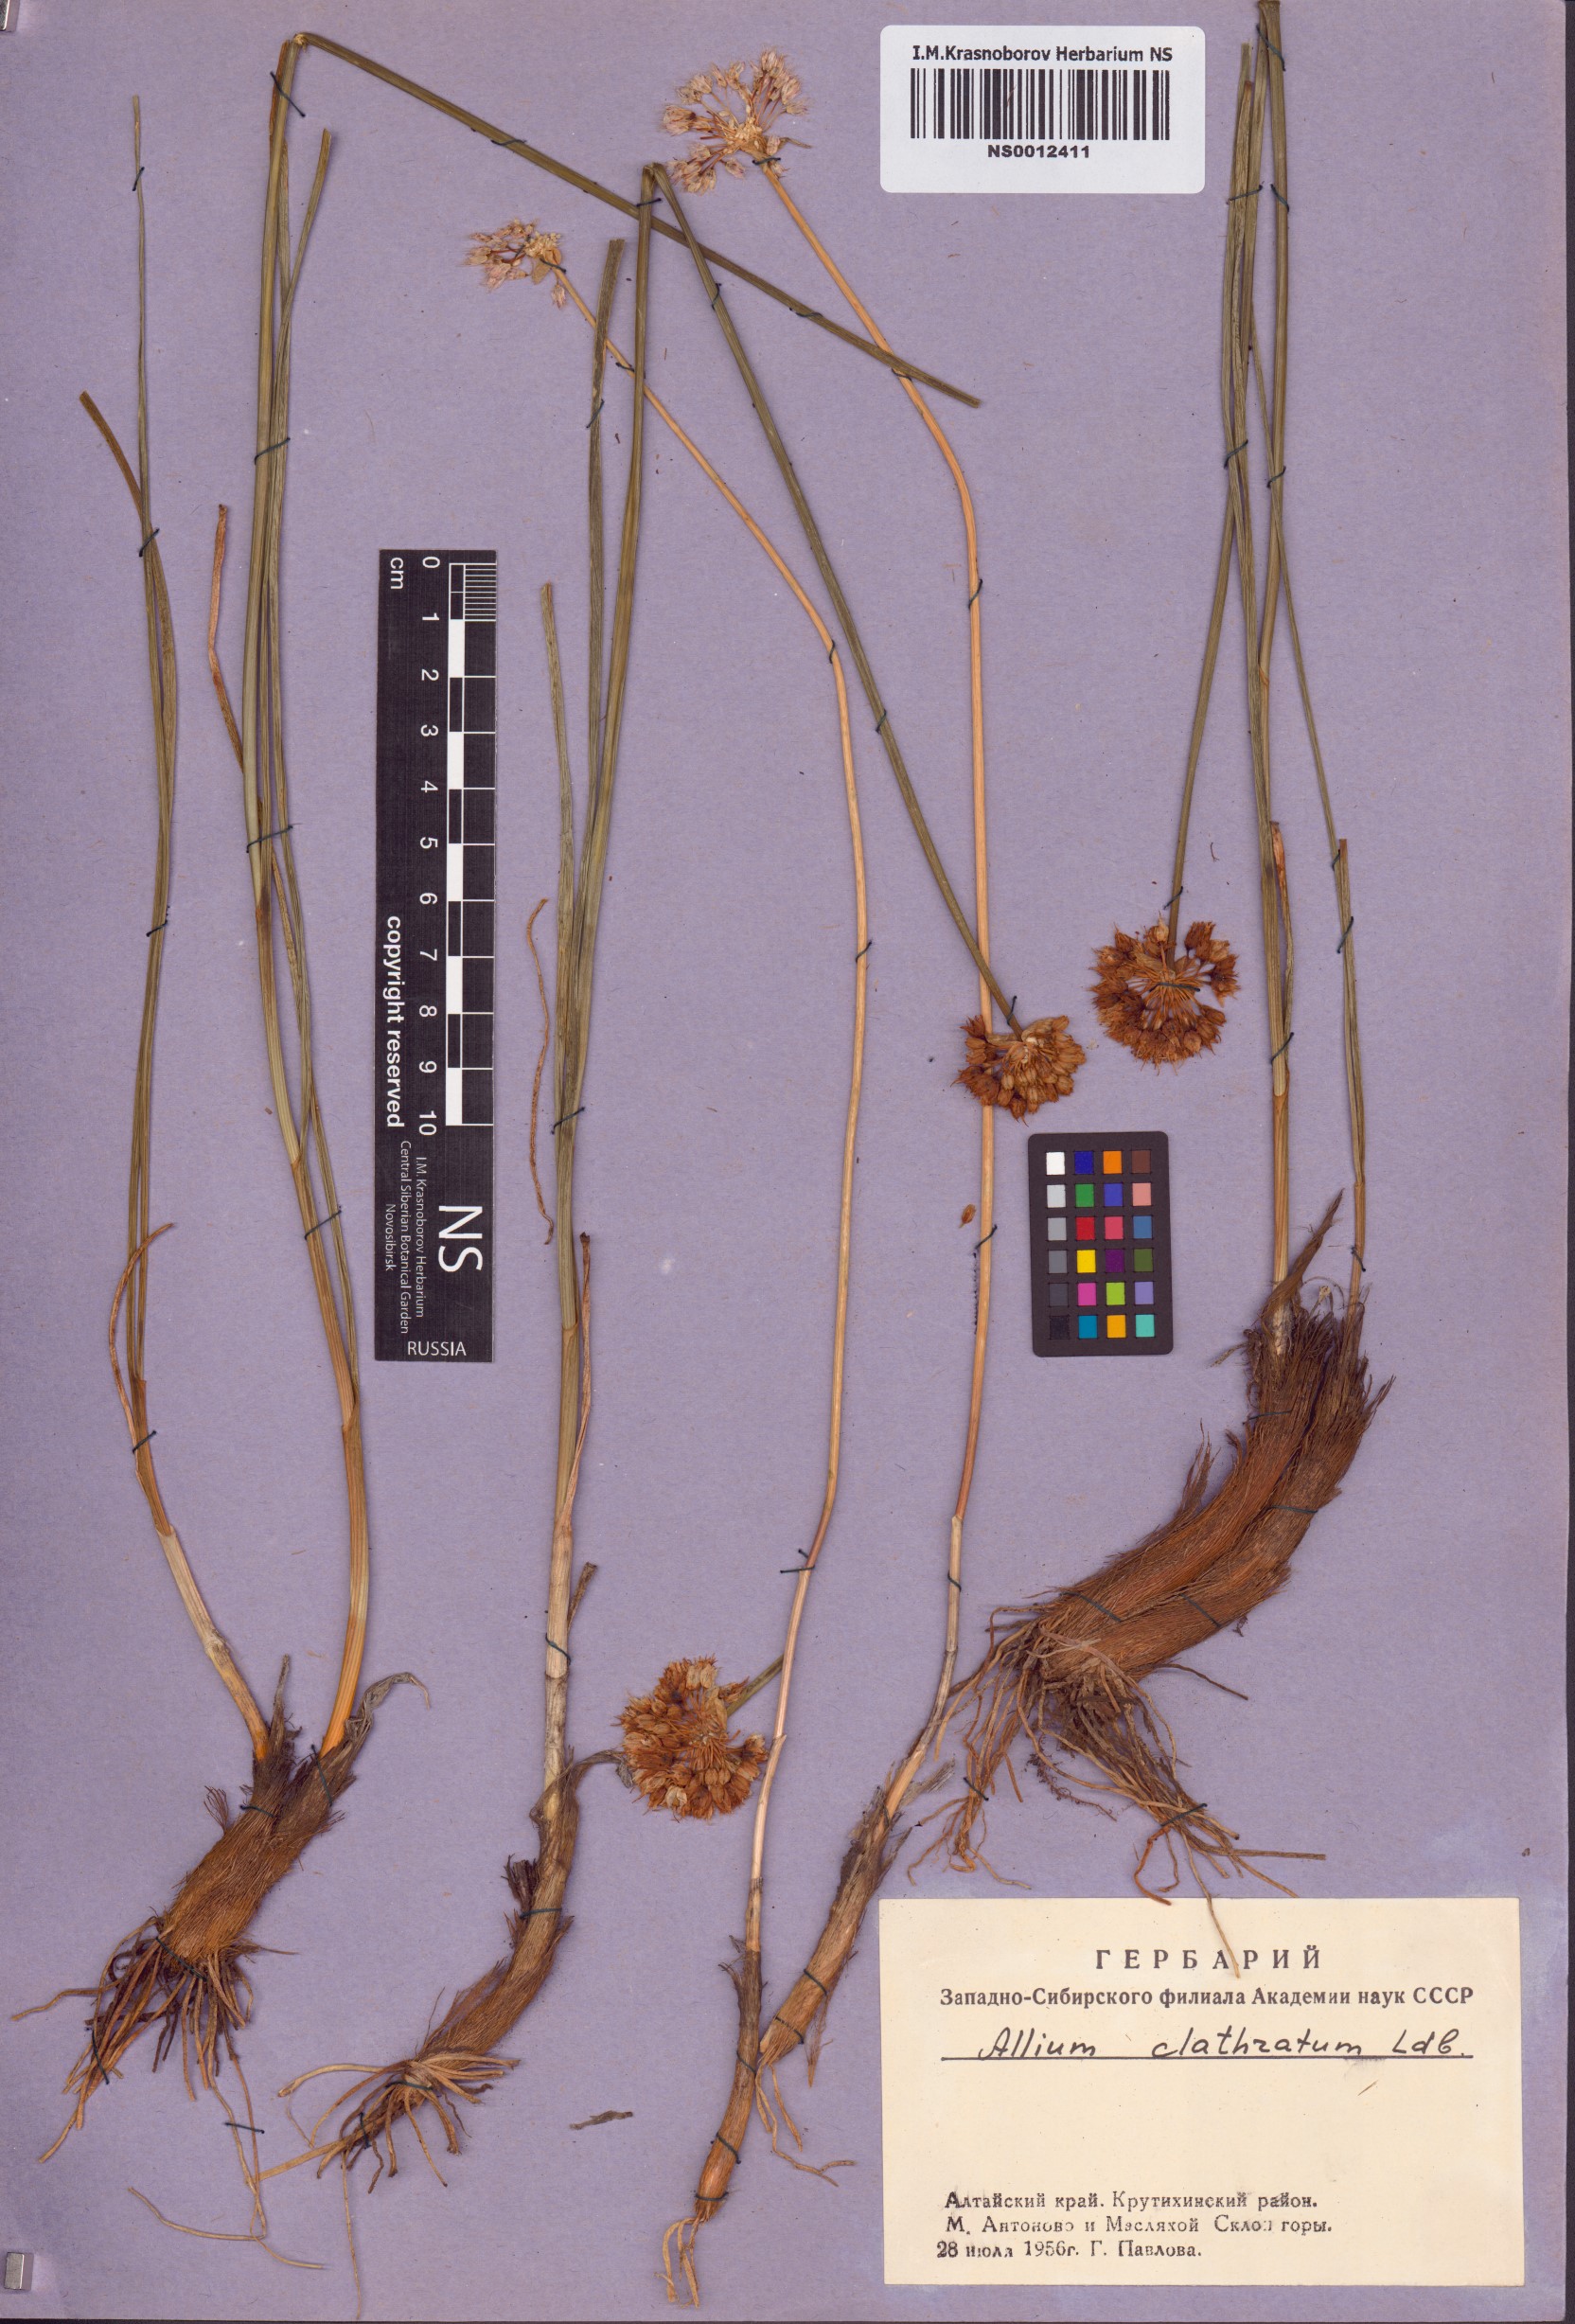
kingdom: Plantae
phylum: Tracheophyta
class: Liliopsida
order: Asparagales
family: Amaryllidaceae
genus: Allium
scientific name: Allium clathratum
